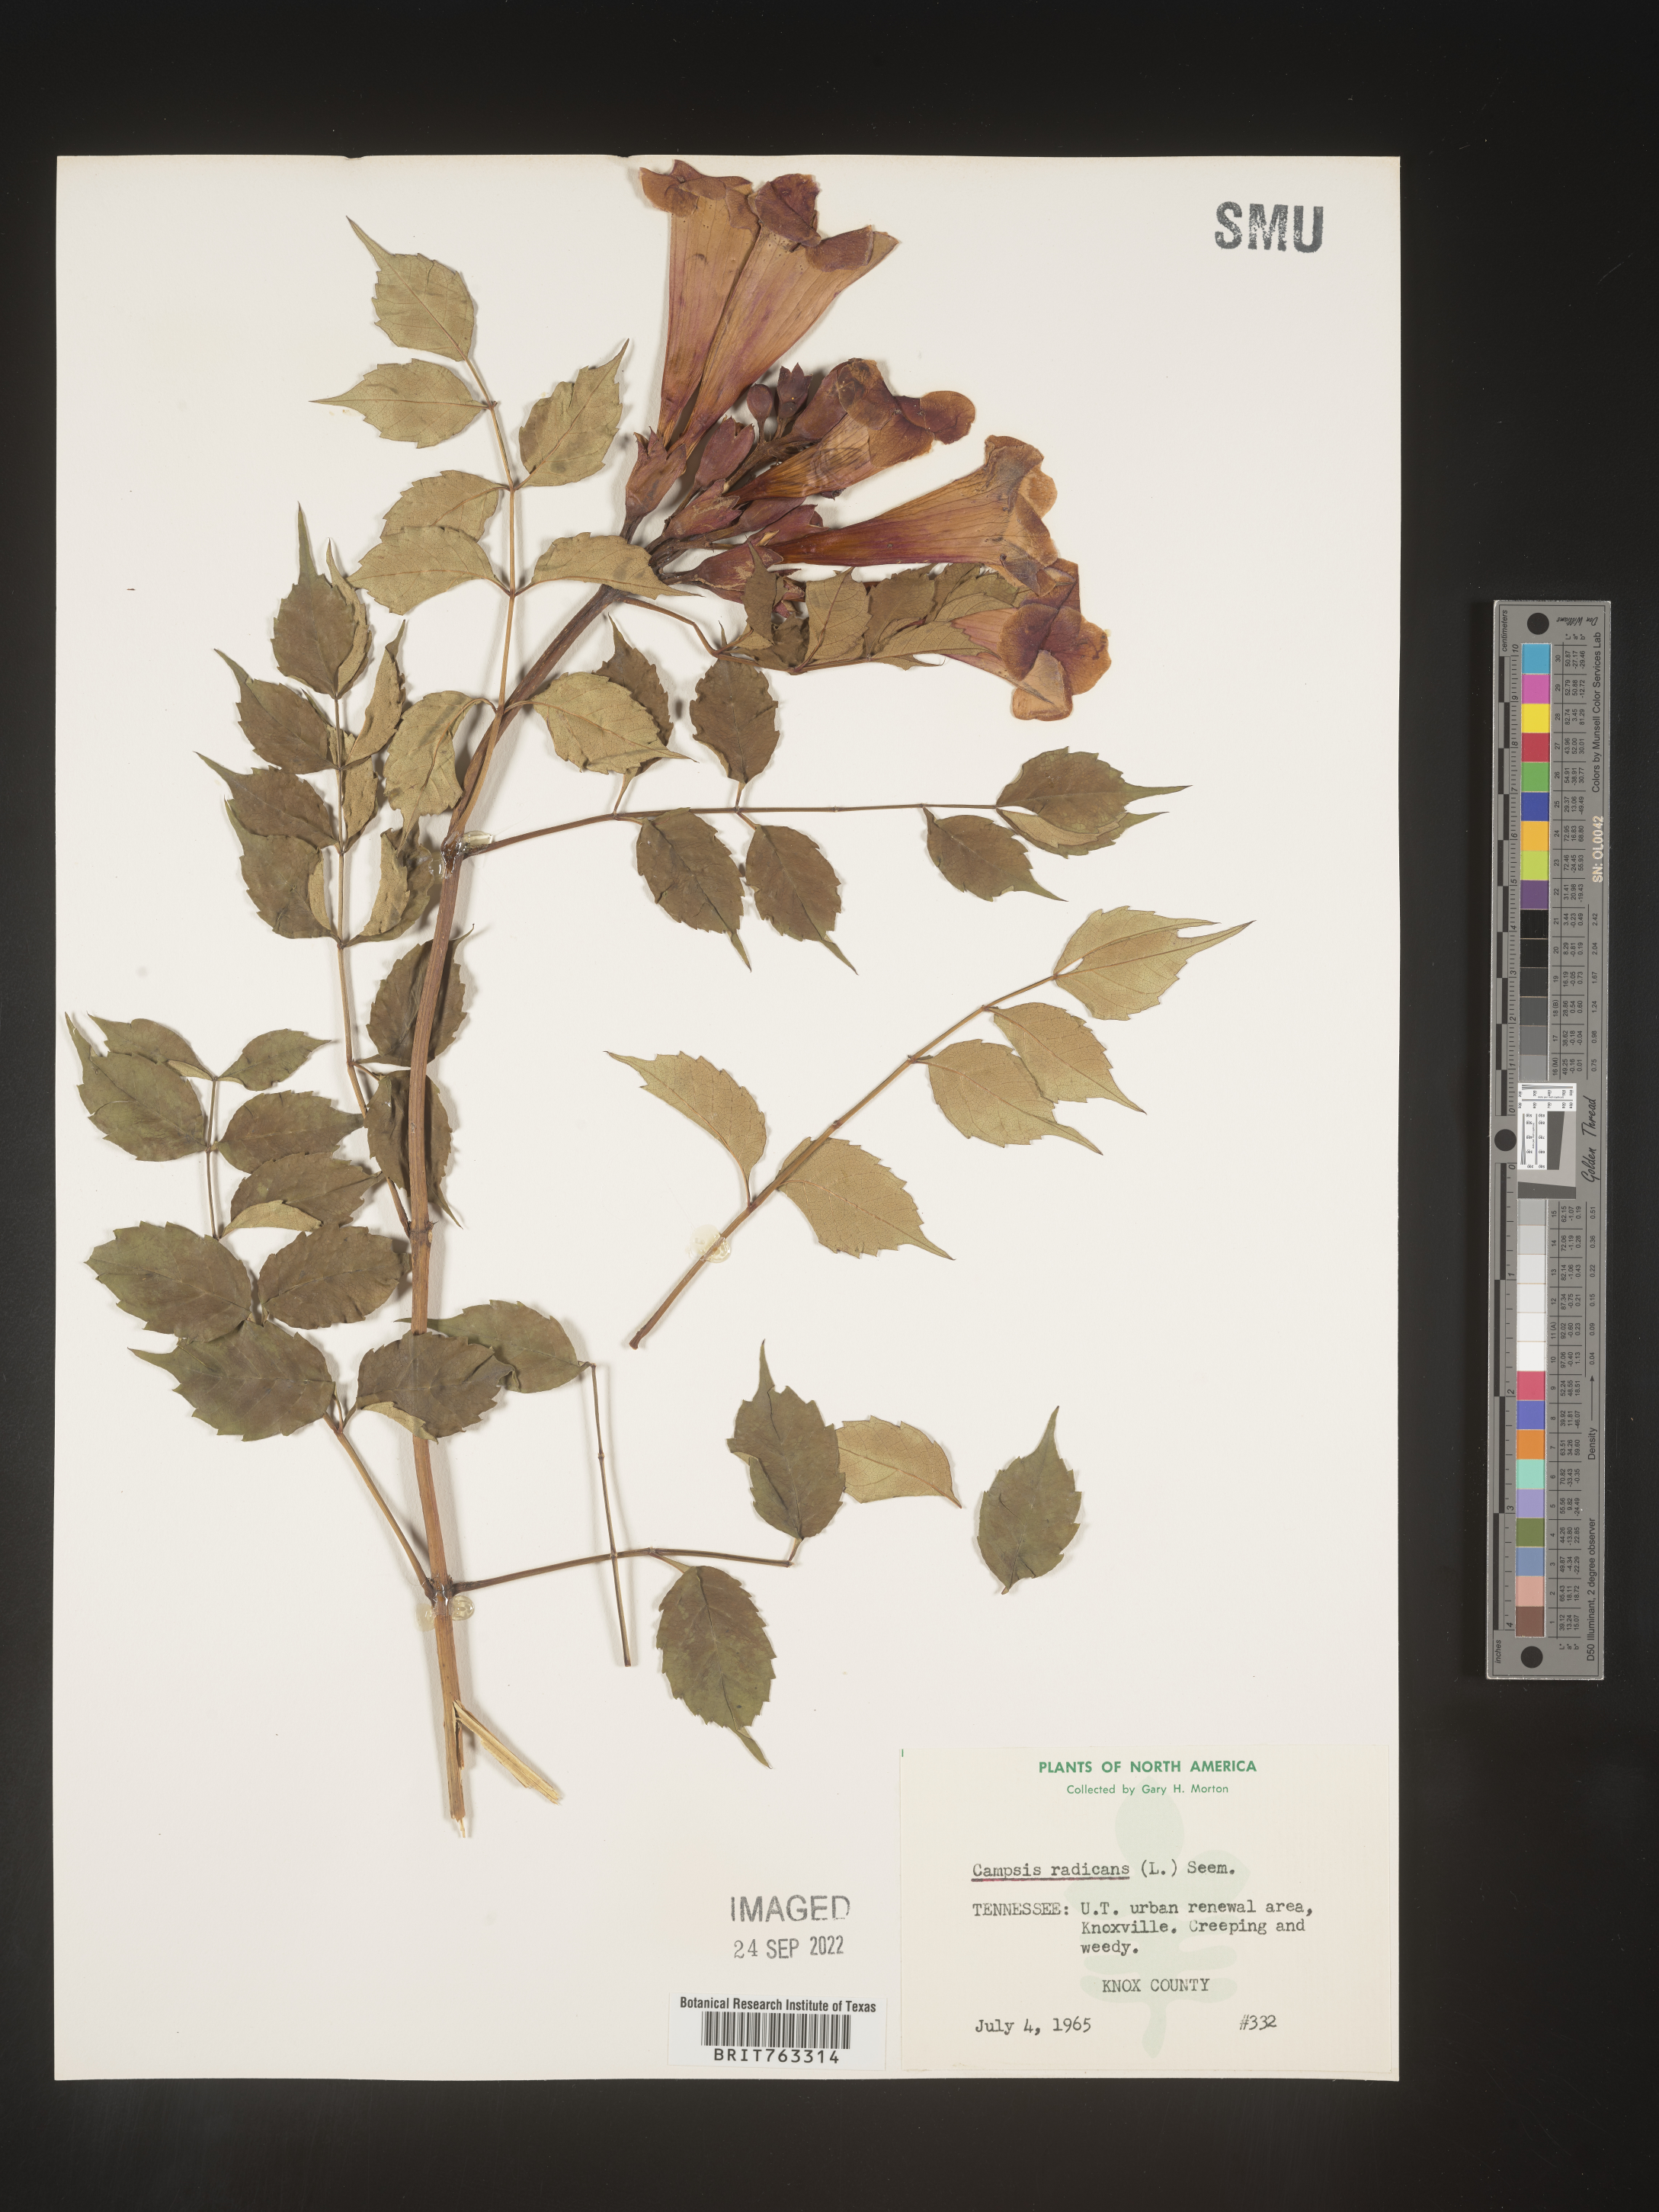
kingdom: Plantae
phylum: Tracheophyta
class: Magnoliopsida
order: Lamiales
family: Bignoniaceae
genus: Campsis
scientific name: Campsis radicans
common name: Trumpet-creeper
